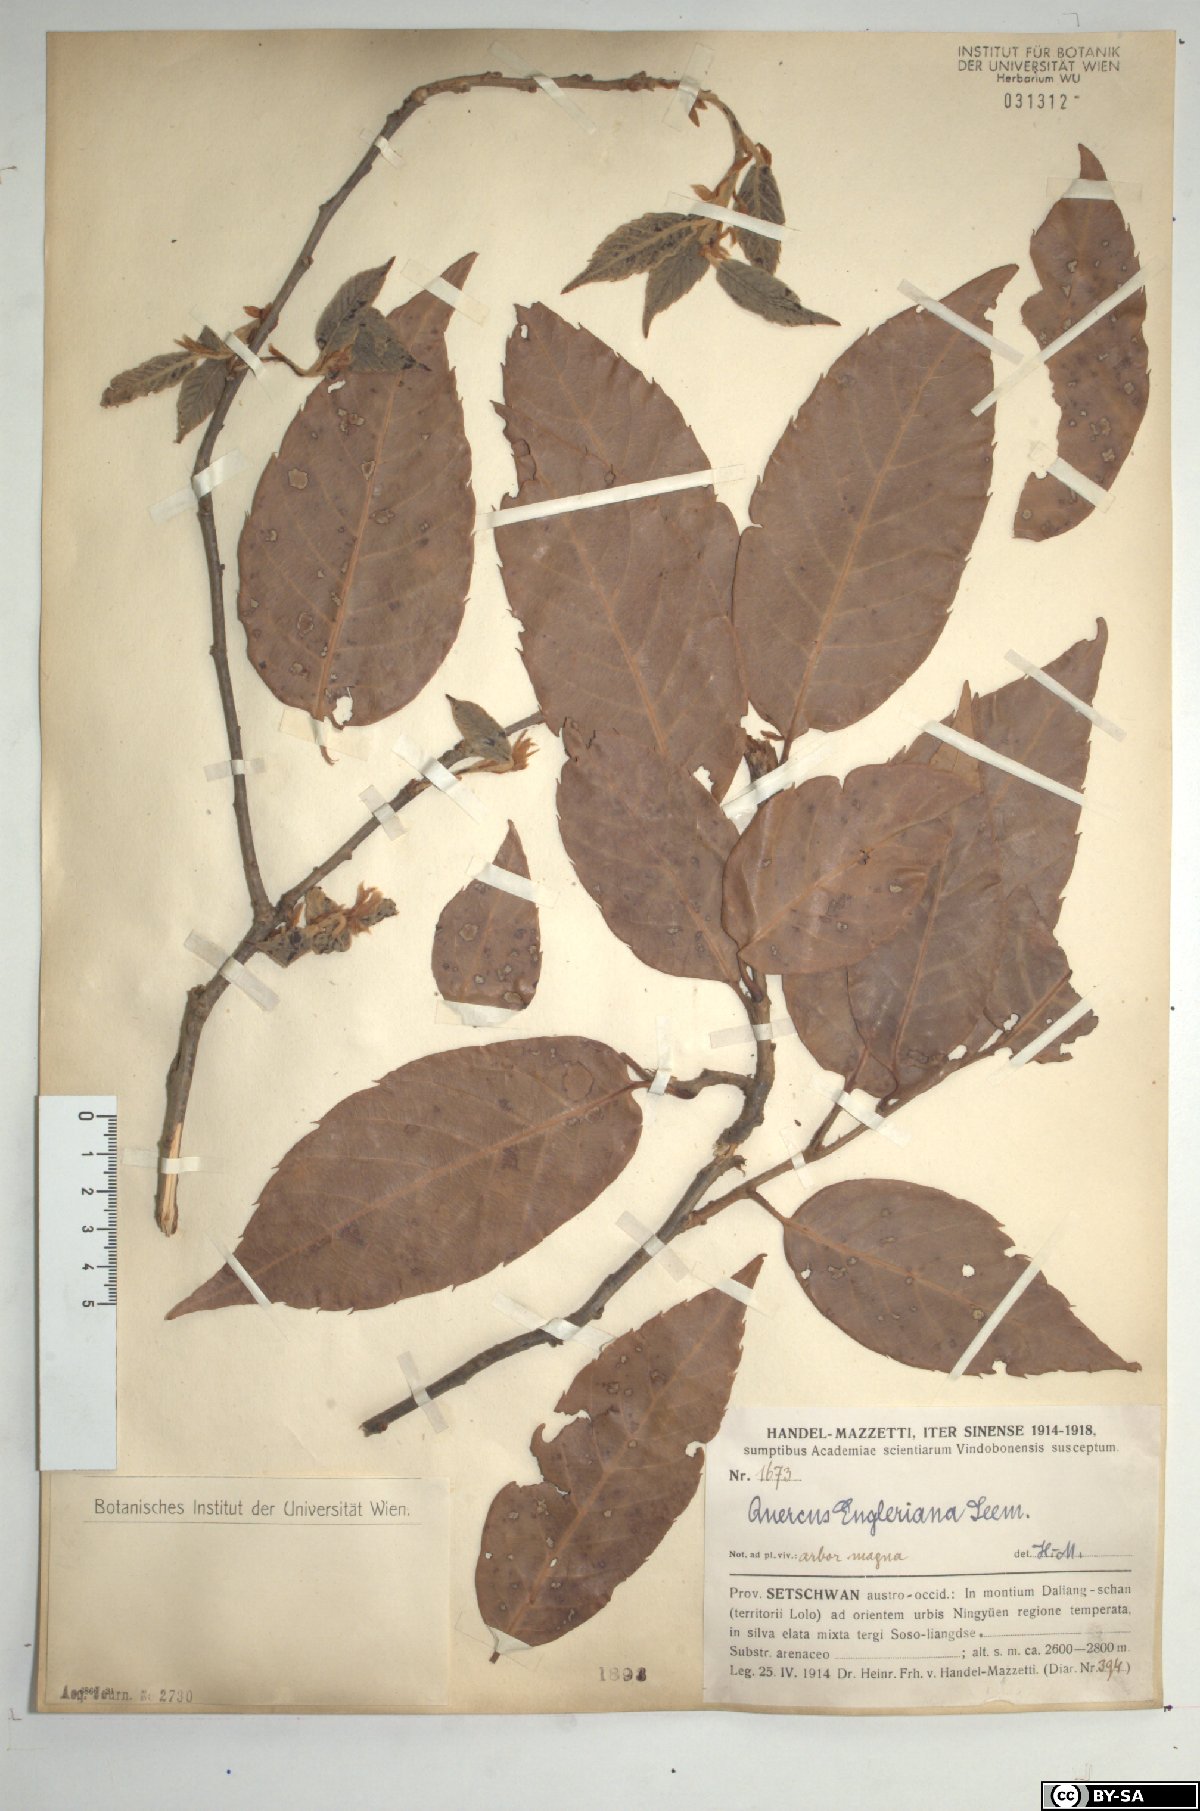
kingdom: Plantae
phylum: Tracheophyta
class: Magnoliopsida
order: Fagales
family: Fagaceae
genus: Quercus
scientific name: Quercus engleriana
